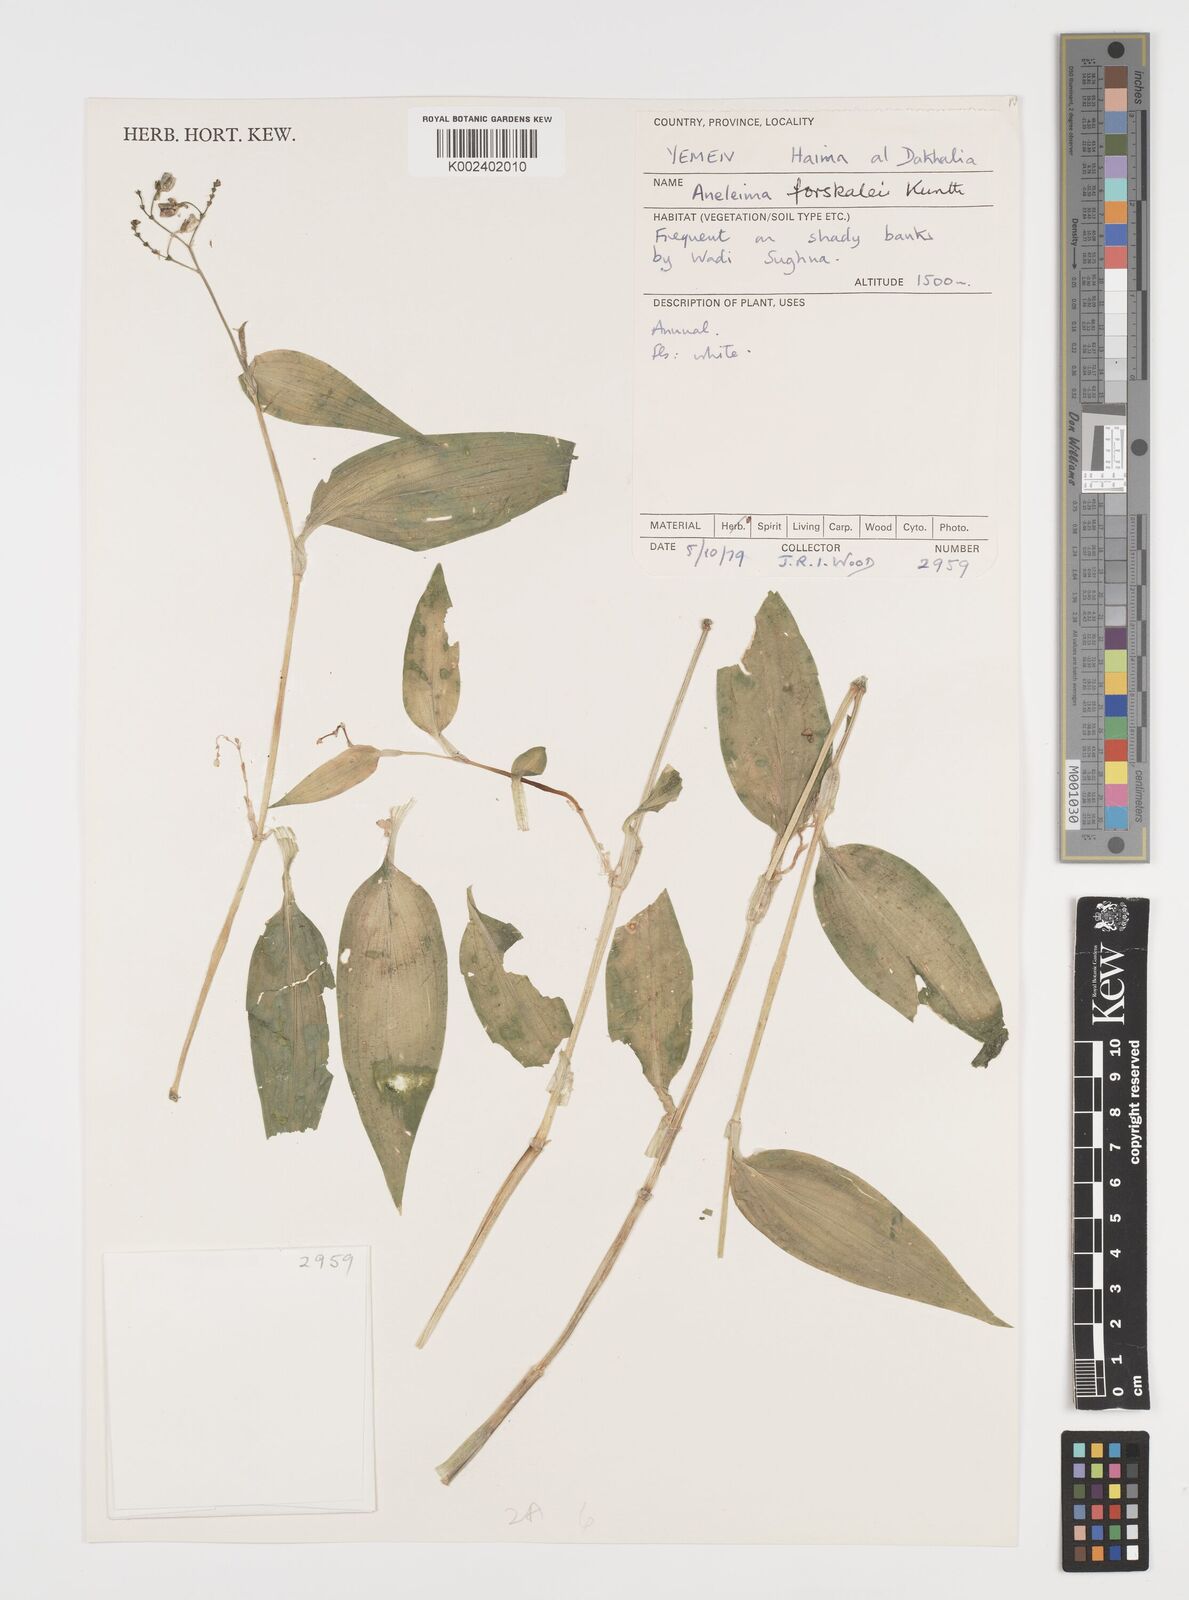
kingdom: Plantae
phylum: Tracheophyta
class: Liliopsida
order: Commelinales
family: Commelinaceae
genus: Aneilema
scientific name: Aneilema forskalii
